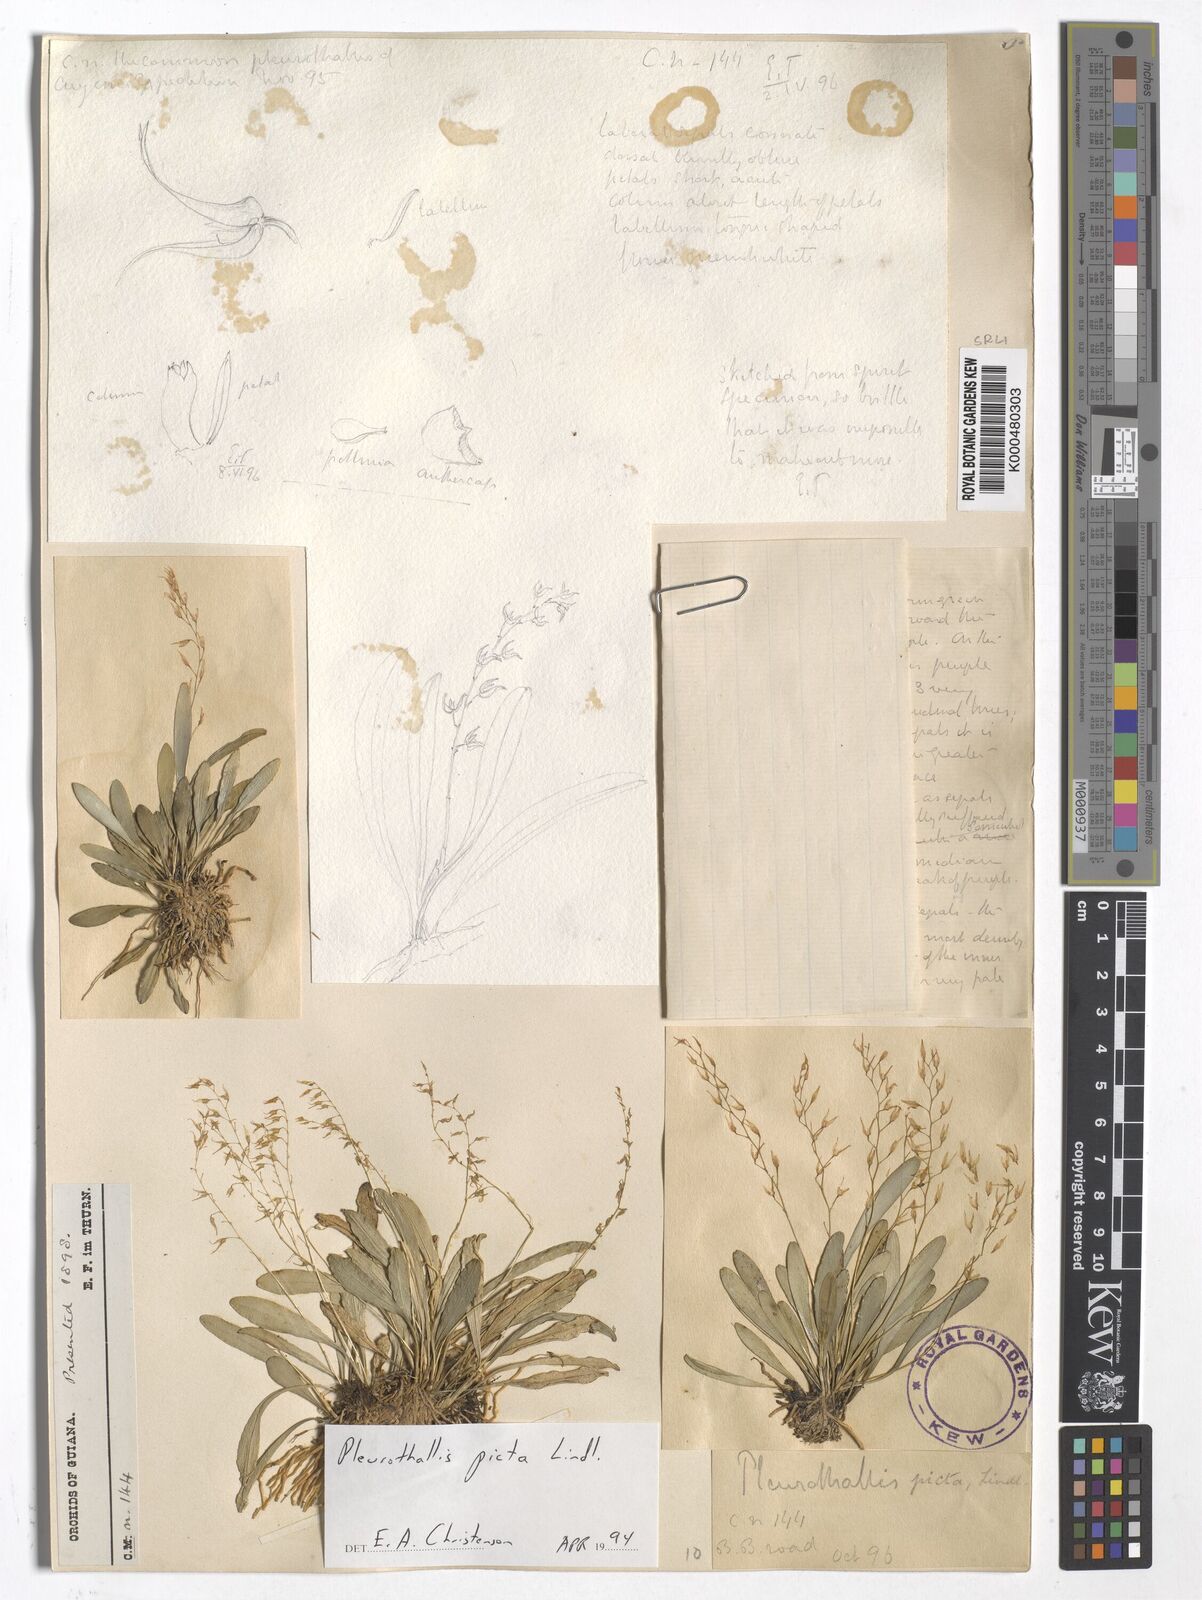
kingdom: Plantae
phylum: Tracheophyta
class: Liliopsida
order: Asparagales
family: Orchidaceae
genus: Specklinia
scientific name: Specklinia picta
